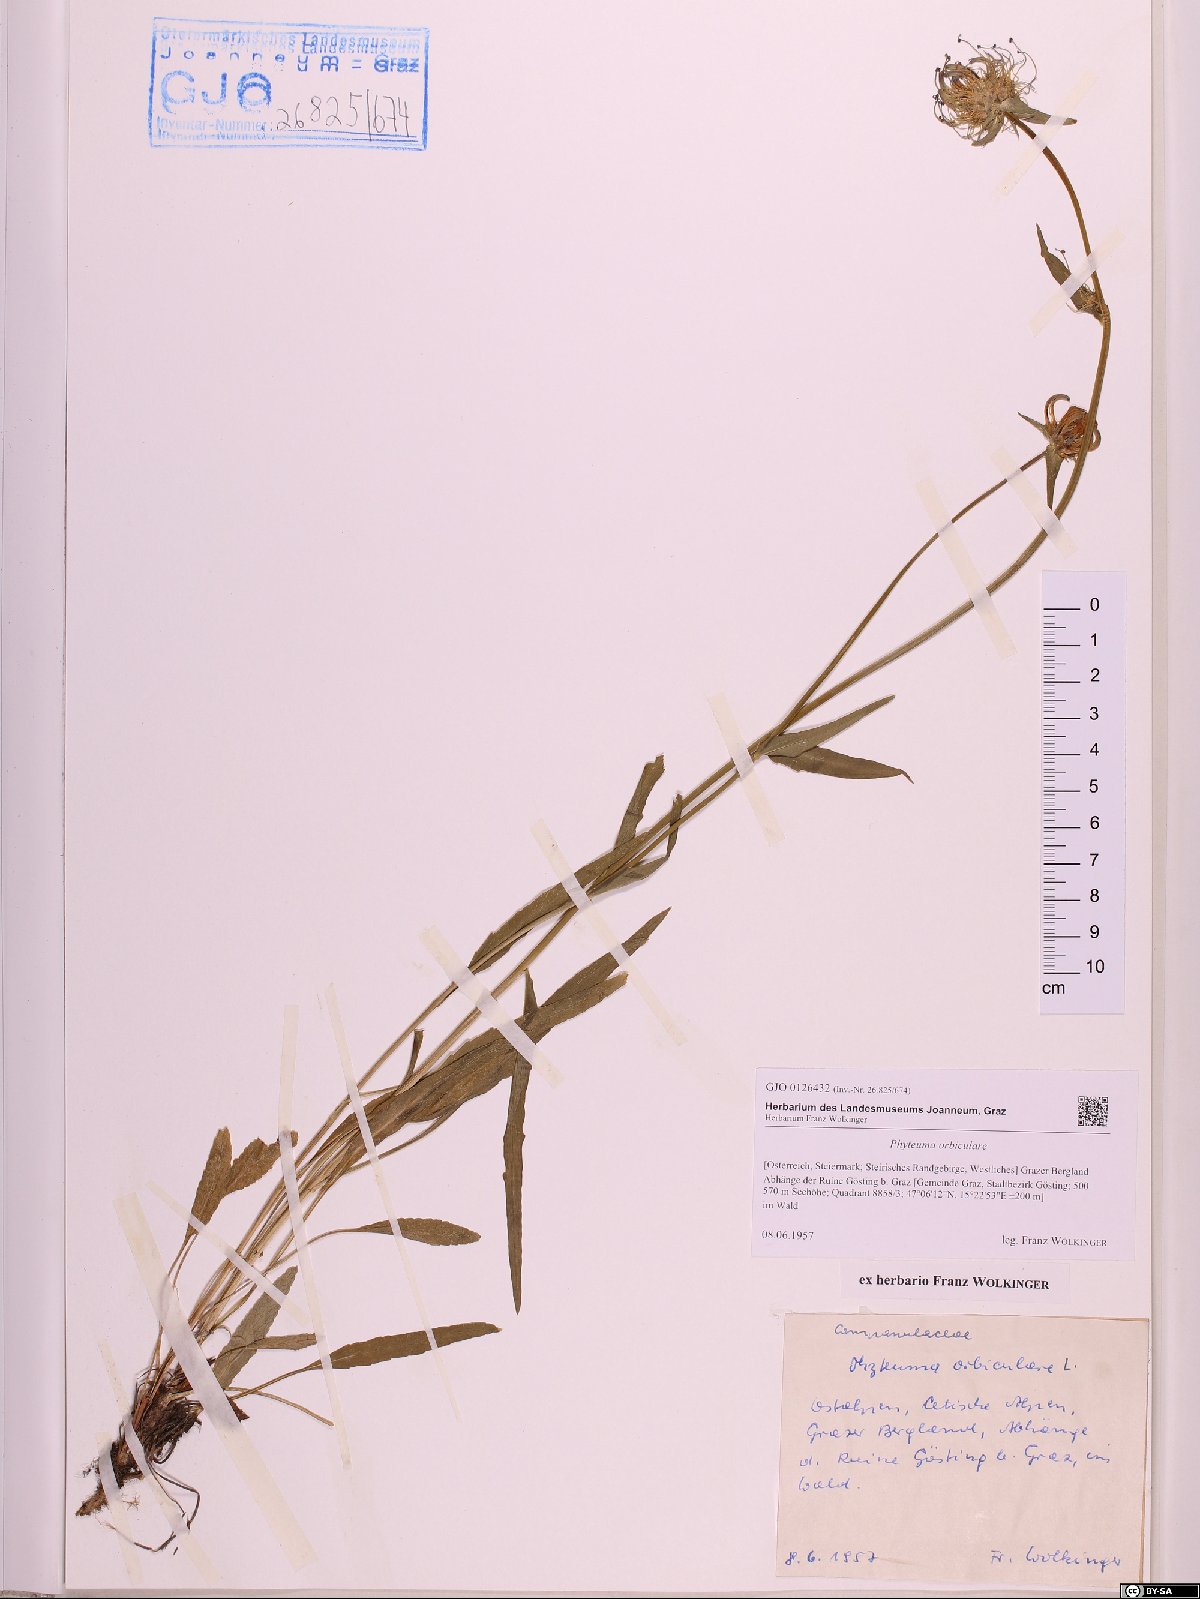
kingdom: Plantae
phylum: Tracheophyta
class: Magnoliopsida
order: Asterales
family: Campanulaceae
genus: Phyteuma
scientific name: Phyteuma orbiculare
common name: Round-headed rampion
